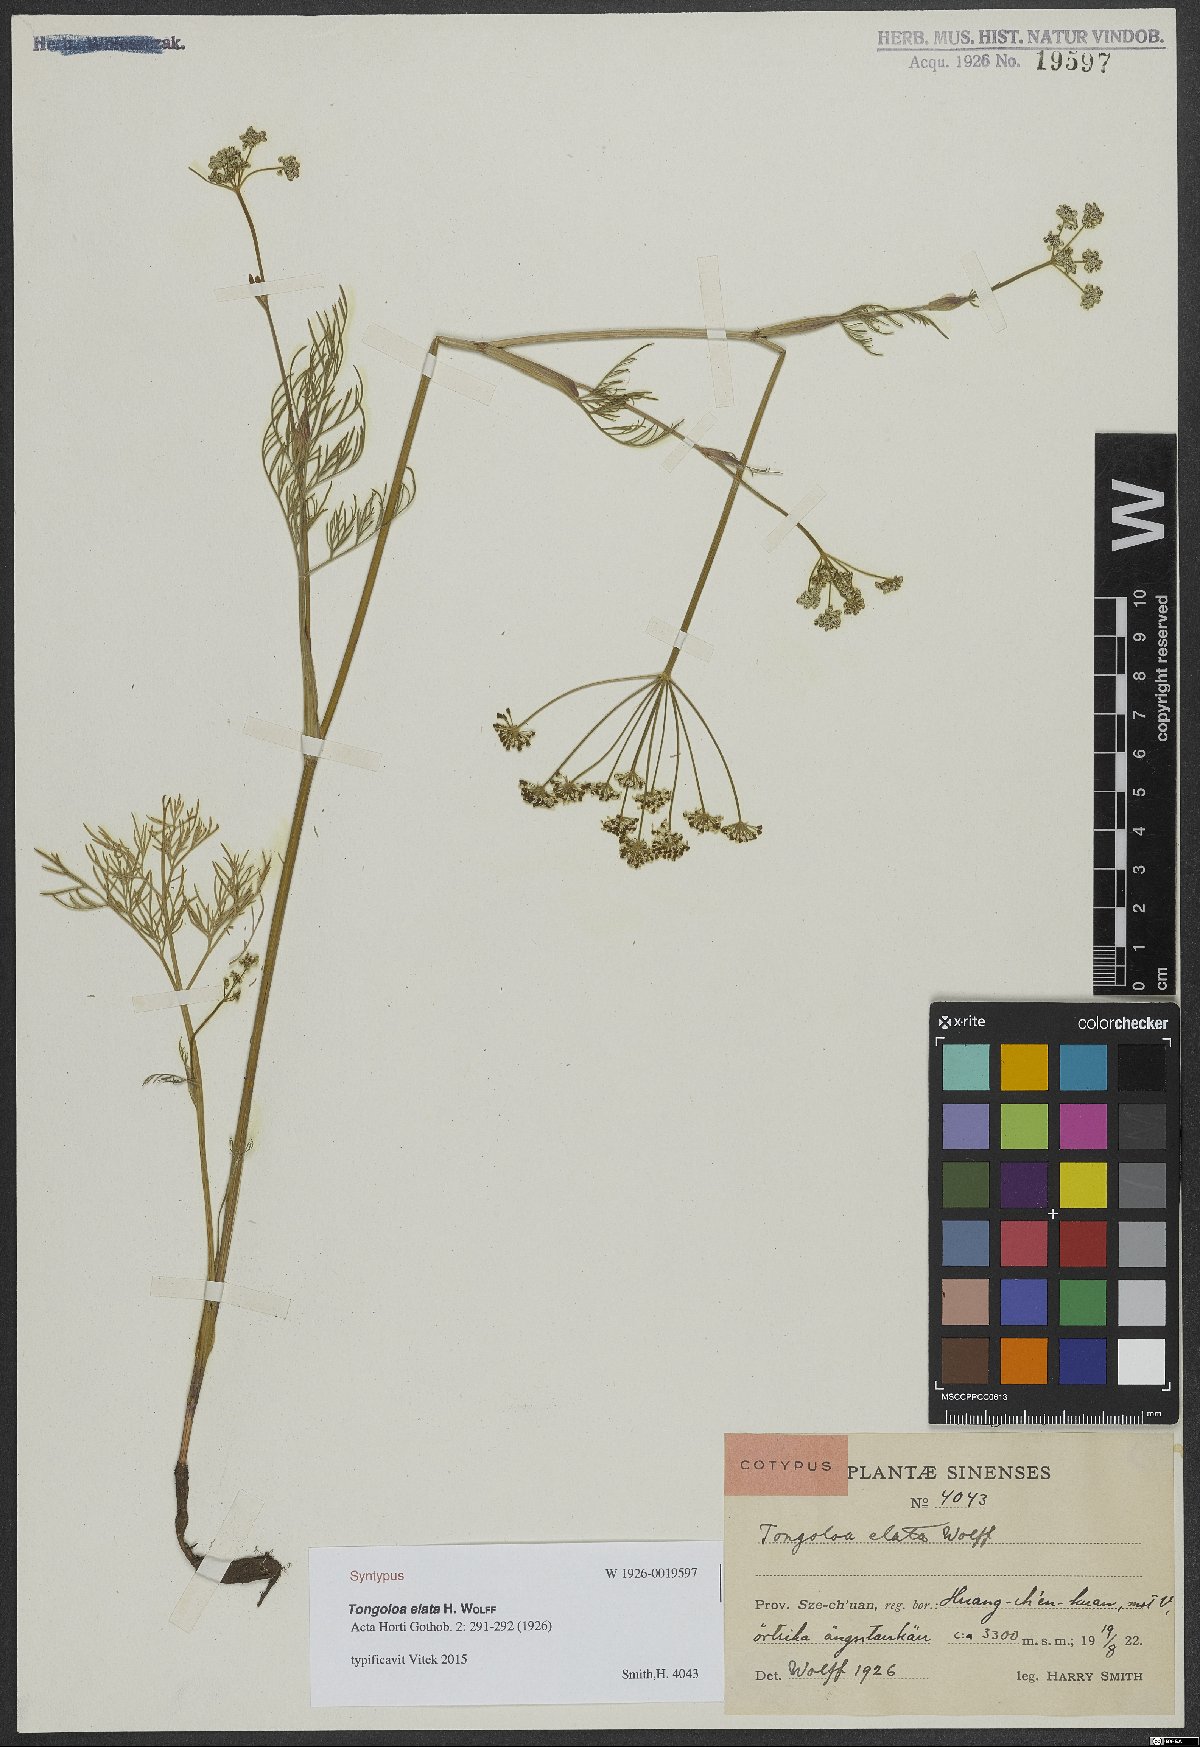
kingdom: Plantae
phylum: Tracheophyta
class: Magnoliopsida
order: Apiales
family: Apiaceae
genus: Tongoloa
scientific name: Tongoloa elata
